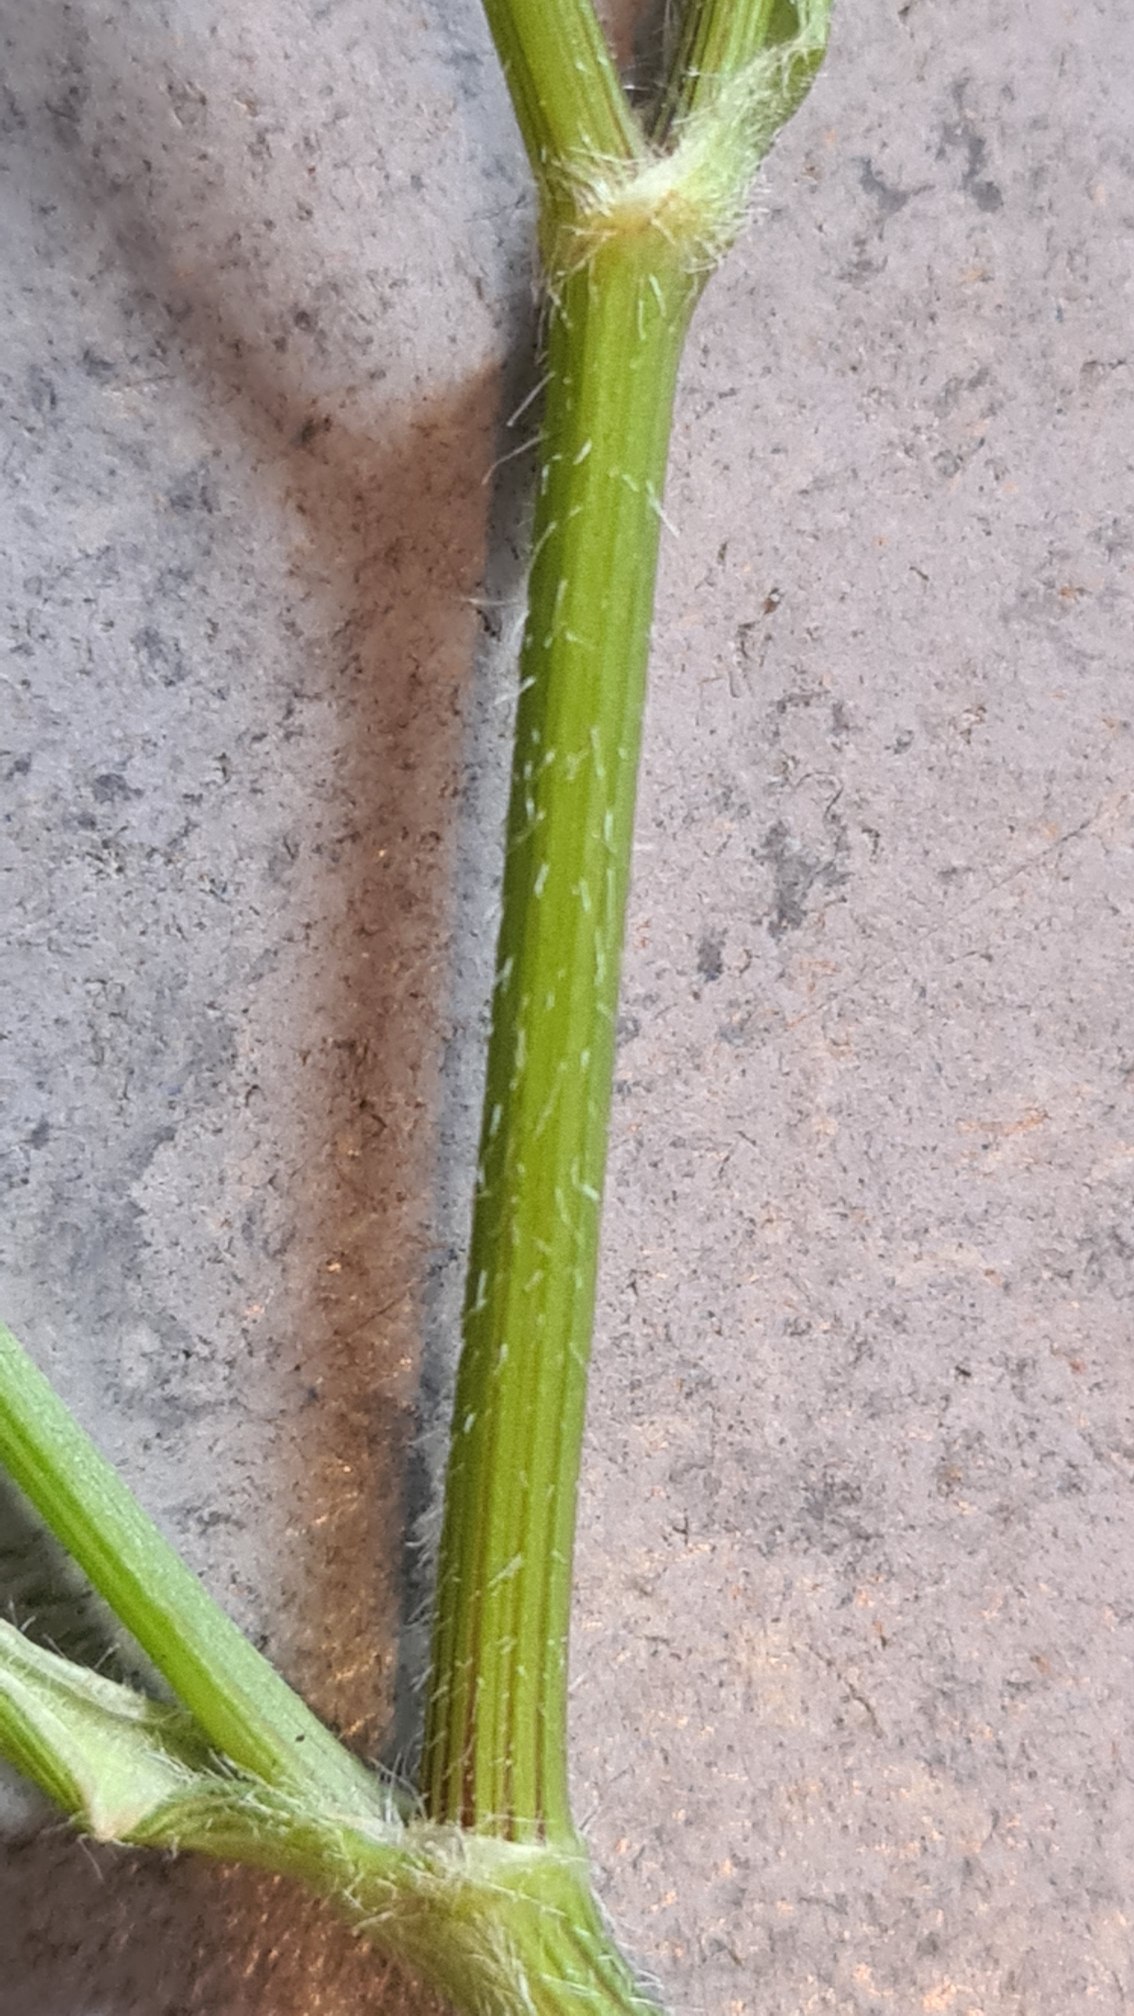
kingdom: Plantae
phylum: Tracheophyta
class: Magnoliopsida
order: Apiales
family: Apiaceae
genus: Daucus
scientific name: Daucus carota
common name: Vild gulerod
